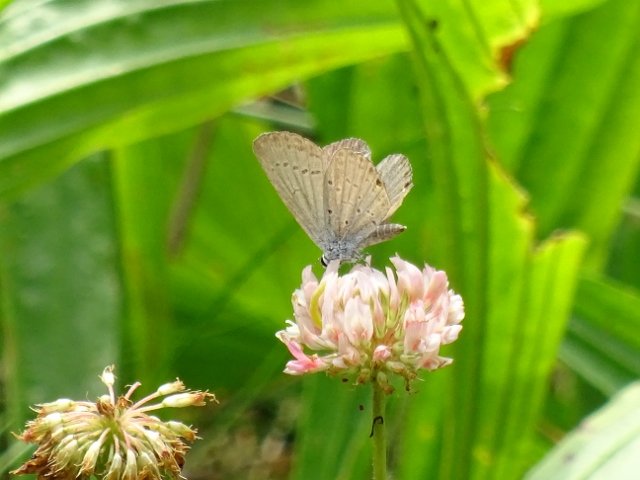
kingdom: Animalia
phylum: Arthropoda
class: Insecta
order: Lepidoptera
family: Lycaenidae
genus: Elkalyce
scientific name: Elkalyce comyntas
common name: Eastern Tailed-Blue
